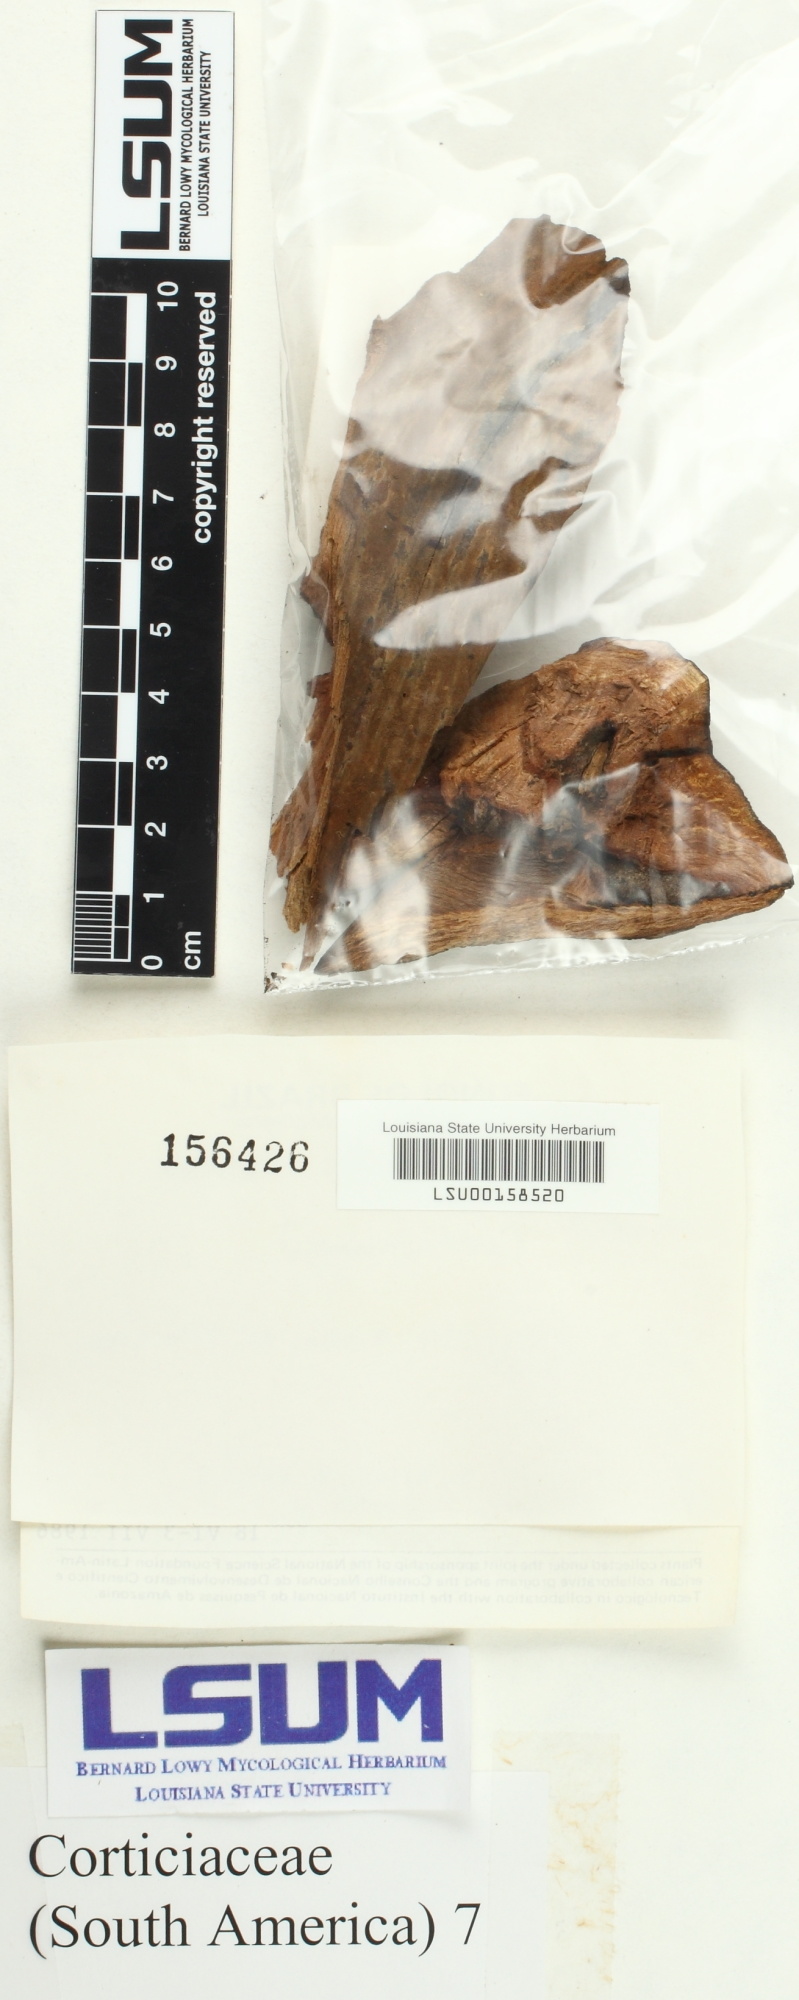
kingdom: Fungi
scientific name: Fungi
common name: Fungi
